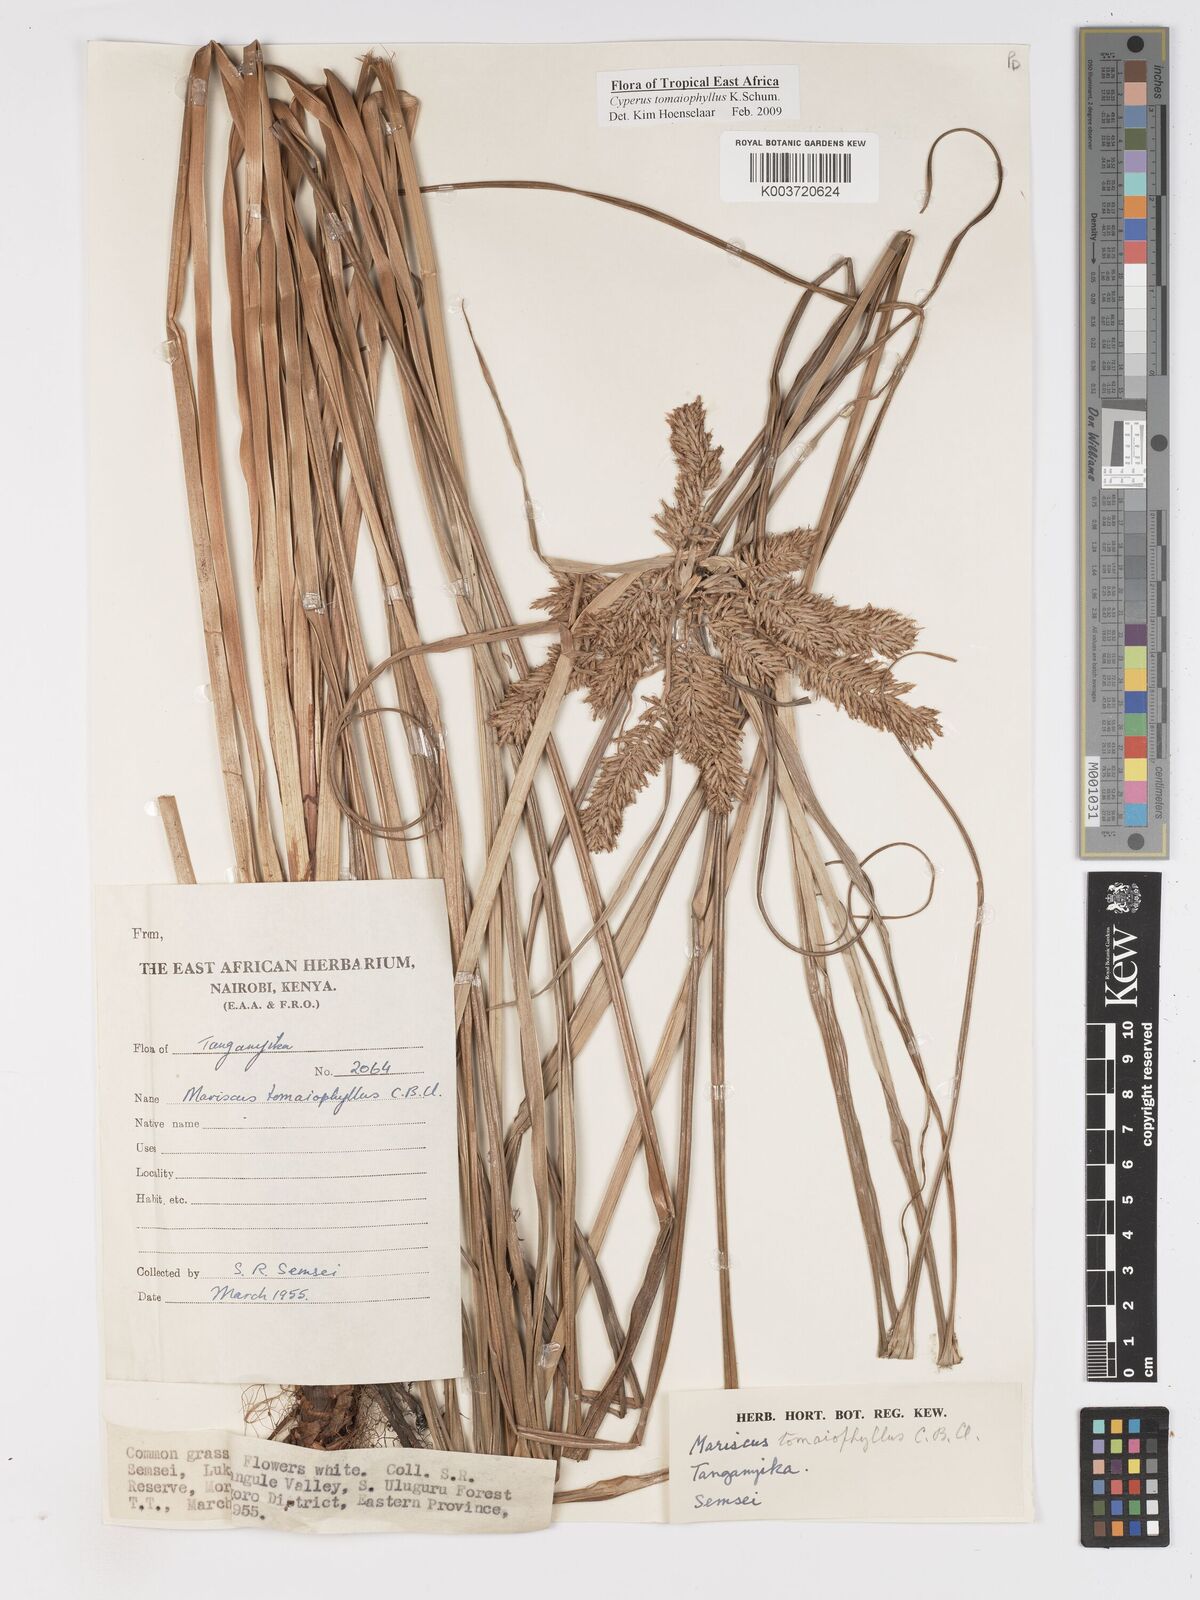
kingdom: Plantae
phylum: Tracheophyta
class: Liliopsida
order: Poales
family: Cyperaceae
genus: Cyperus
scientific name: Cyperus tomaiophyllus
